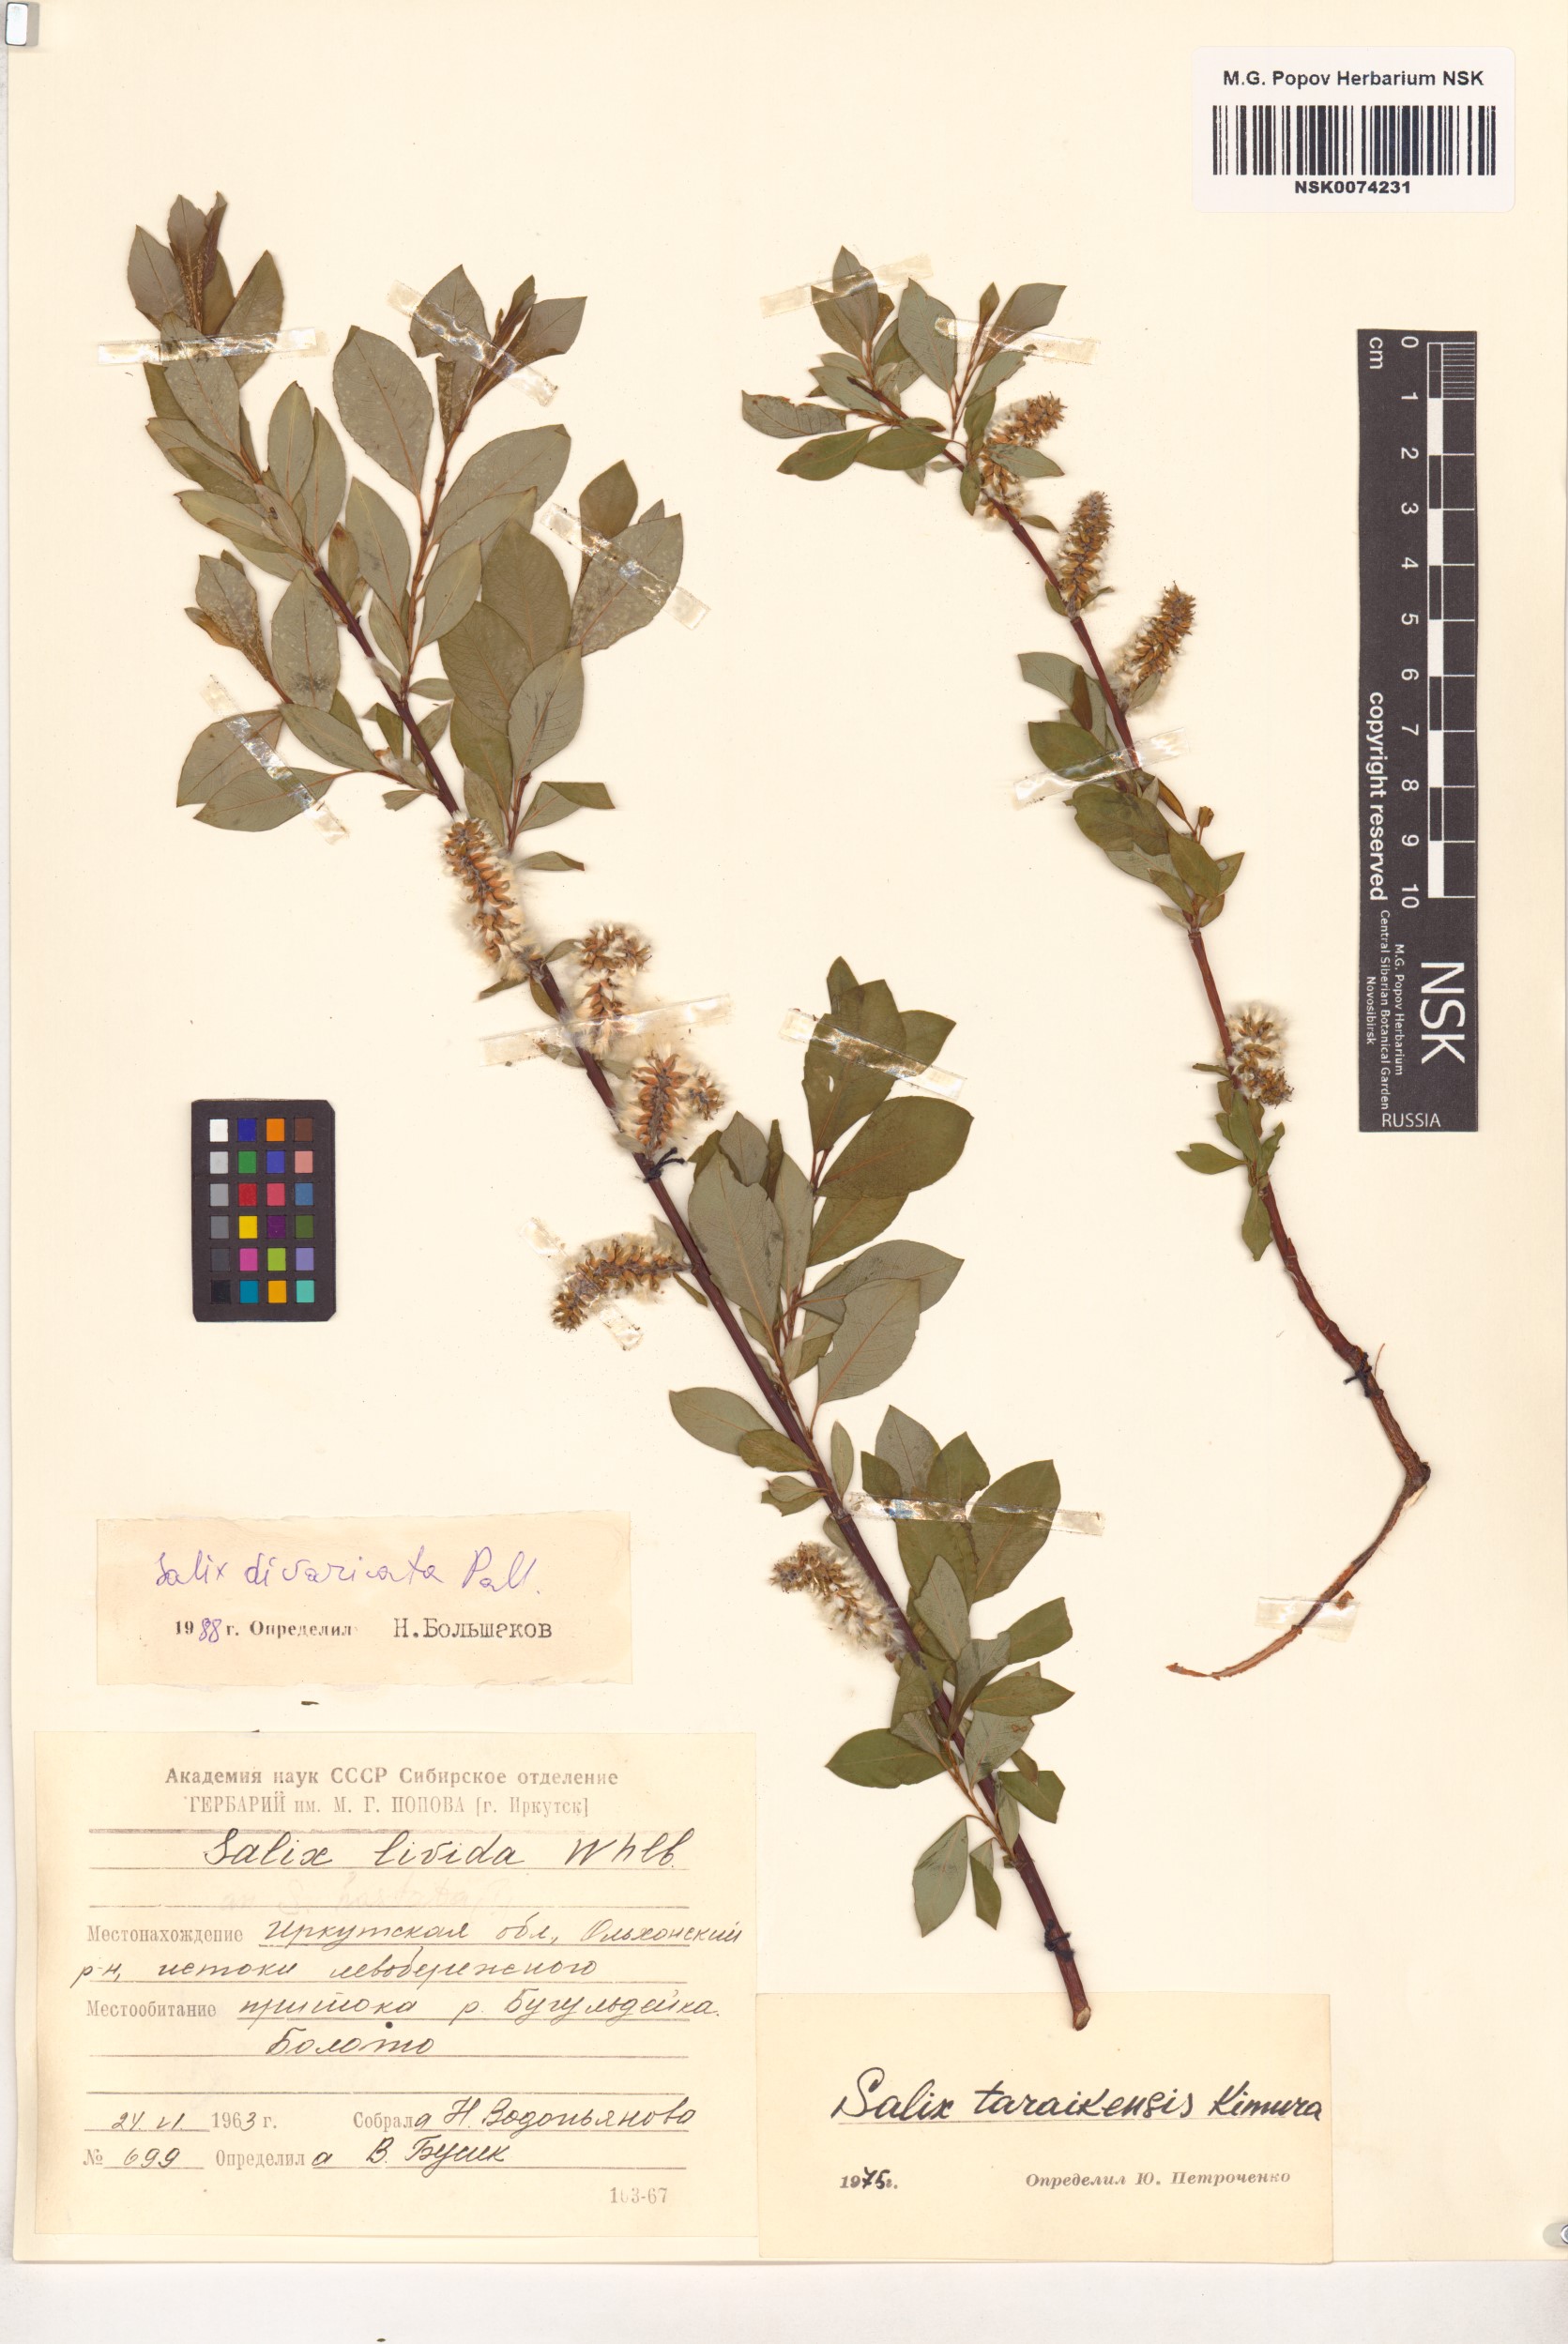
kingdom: Plantae
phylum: Tracheophyta
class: Magnoliopsida
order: Malpighiales
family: Salicaceae
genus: Salix
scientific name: Salix divaricata
